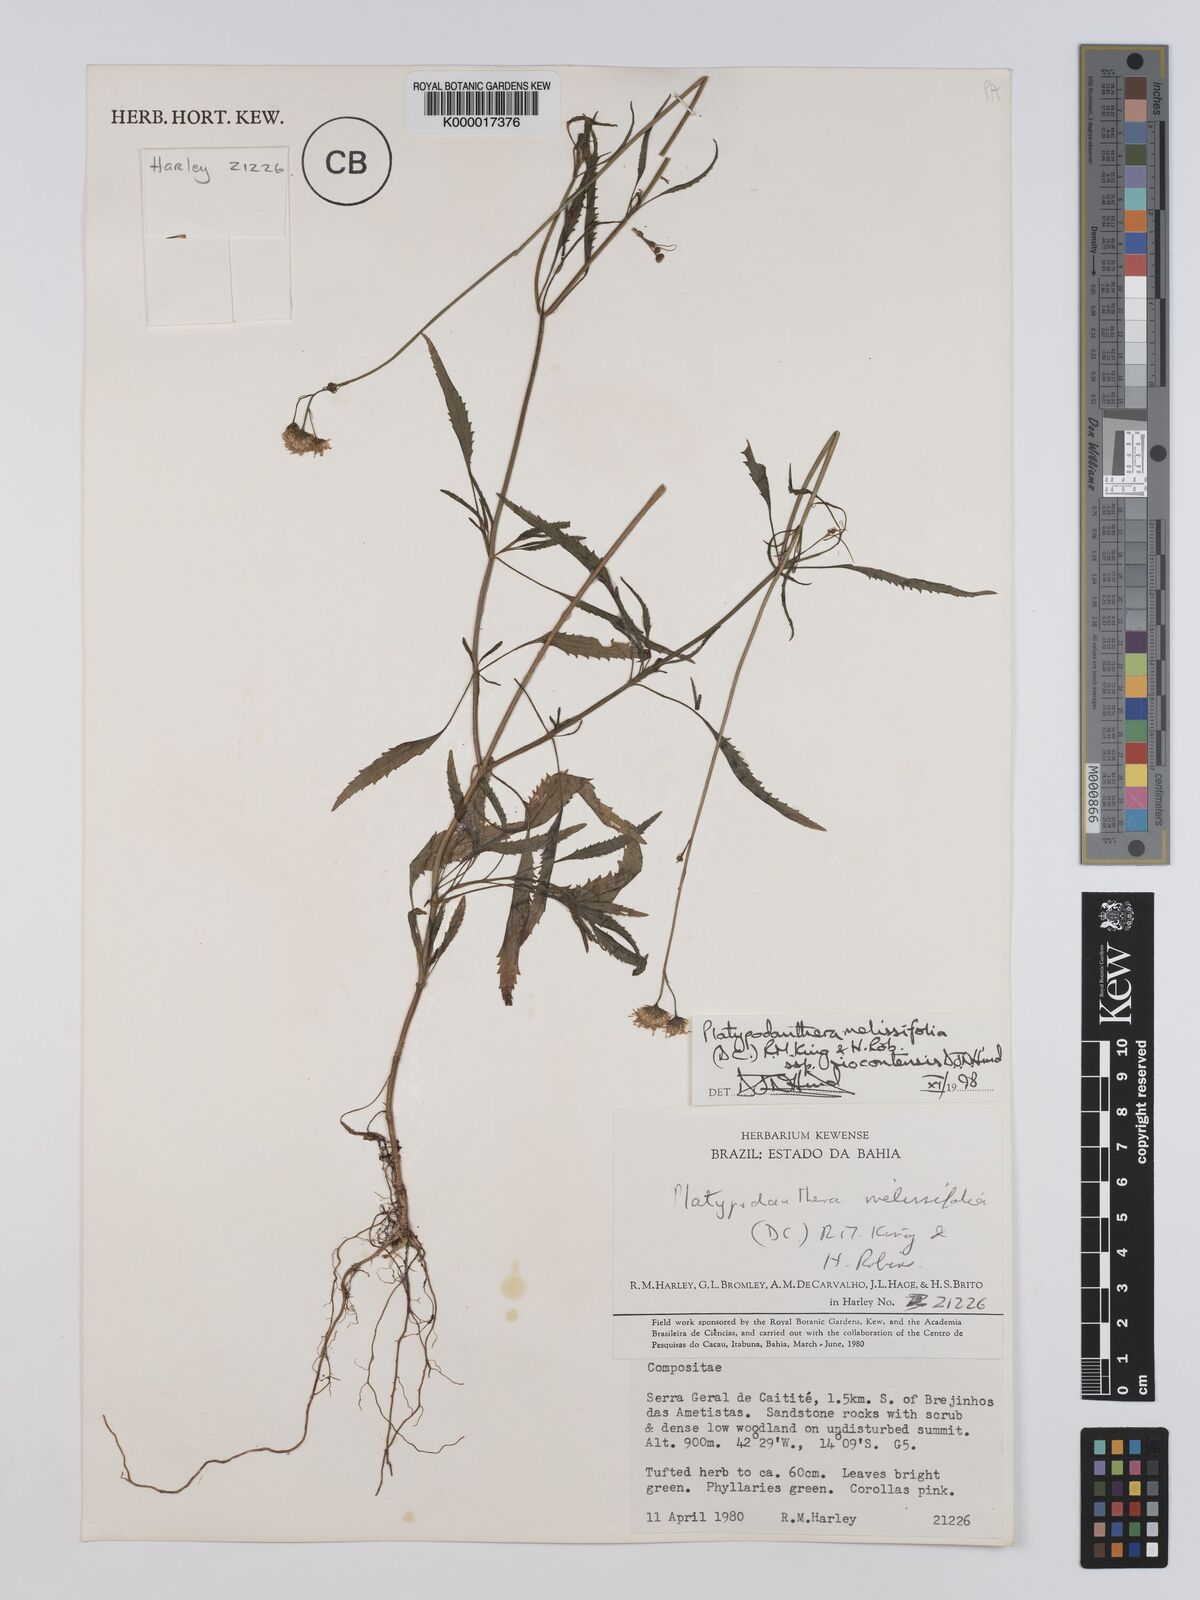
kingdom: Plantae
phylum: Tracheophyta
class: Magnoliopsida
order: Asterales
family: Asteraceae
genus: Platypodanthera
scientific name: Platypodanthera melissifolia
